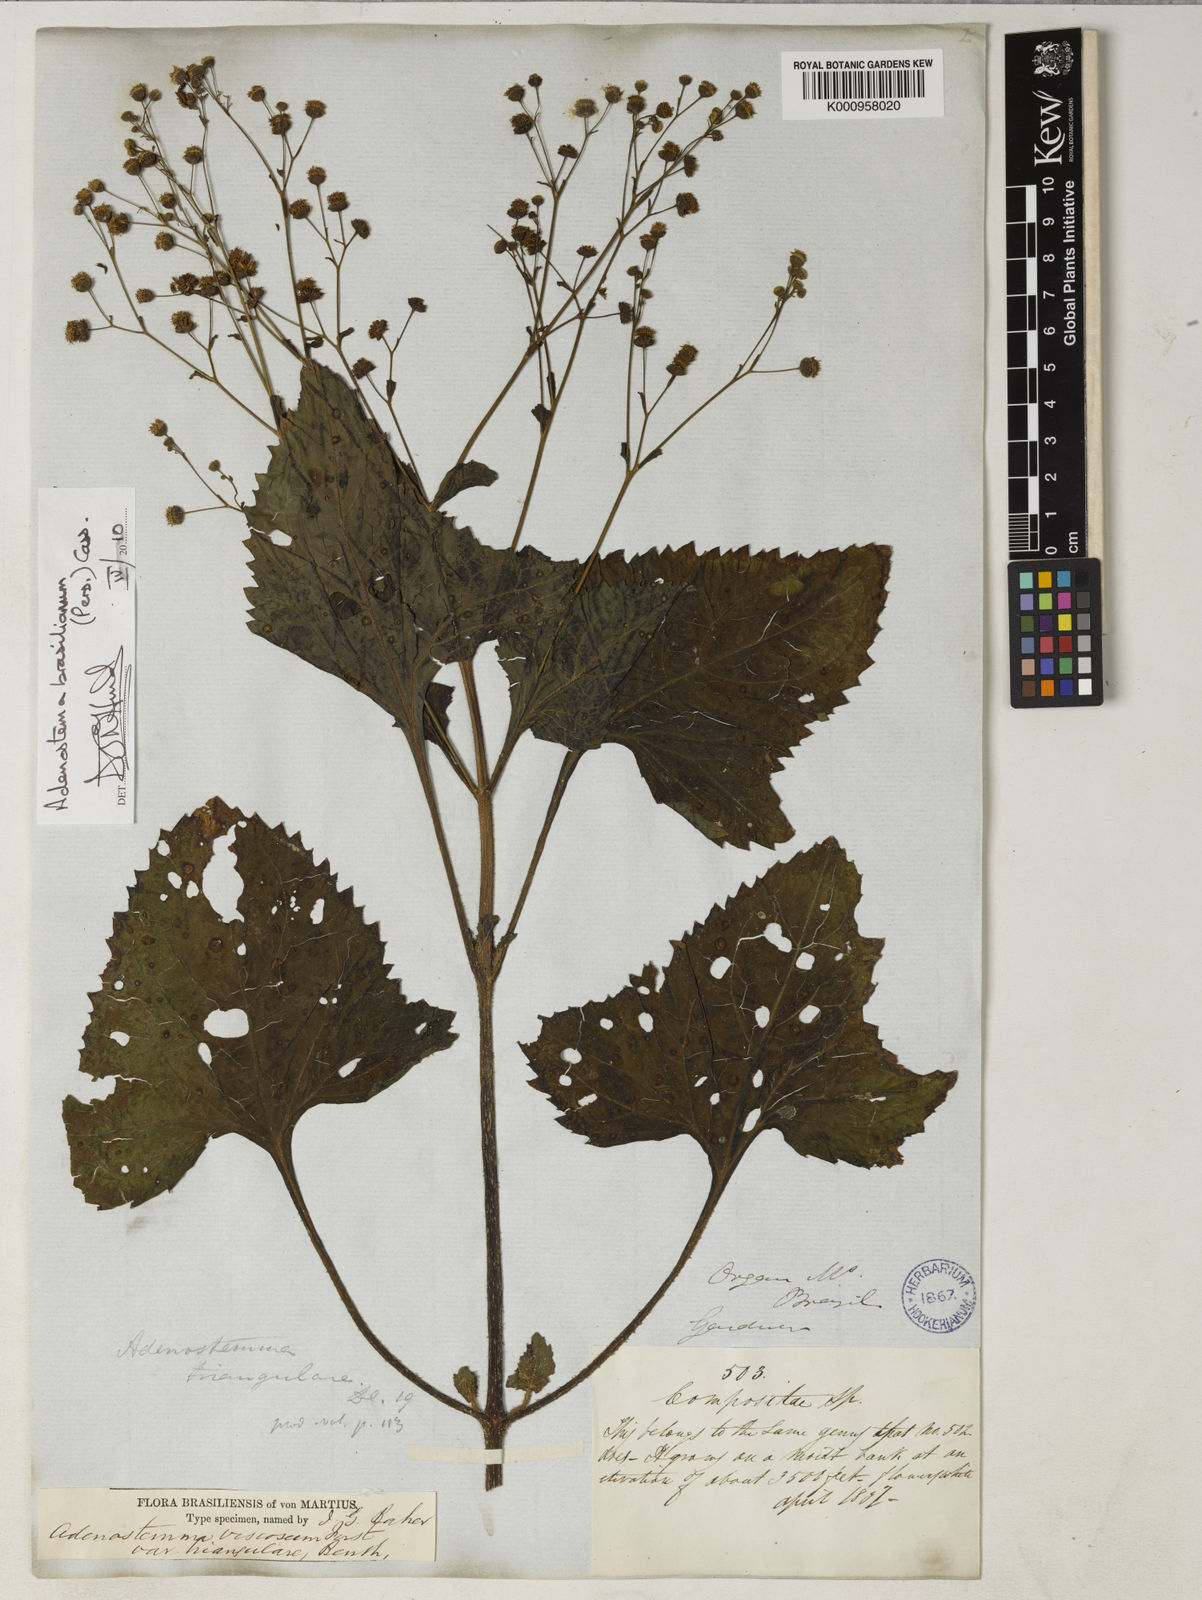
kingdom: Plantae
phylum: Tracheophyta
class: Magnoliopsida
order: Asterales
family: Asteraceae
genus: Adenostemma
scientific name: Adenostemma brasilianum
